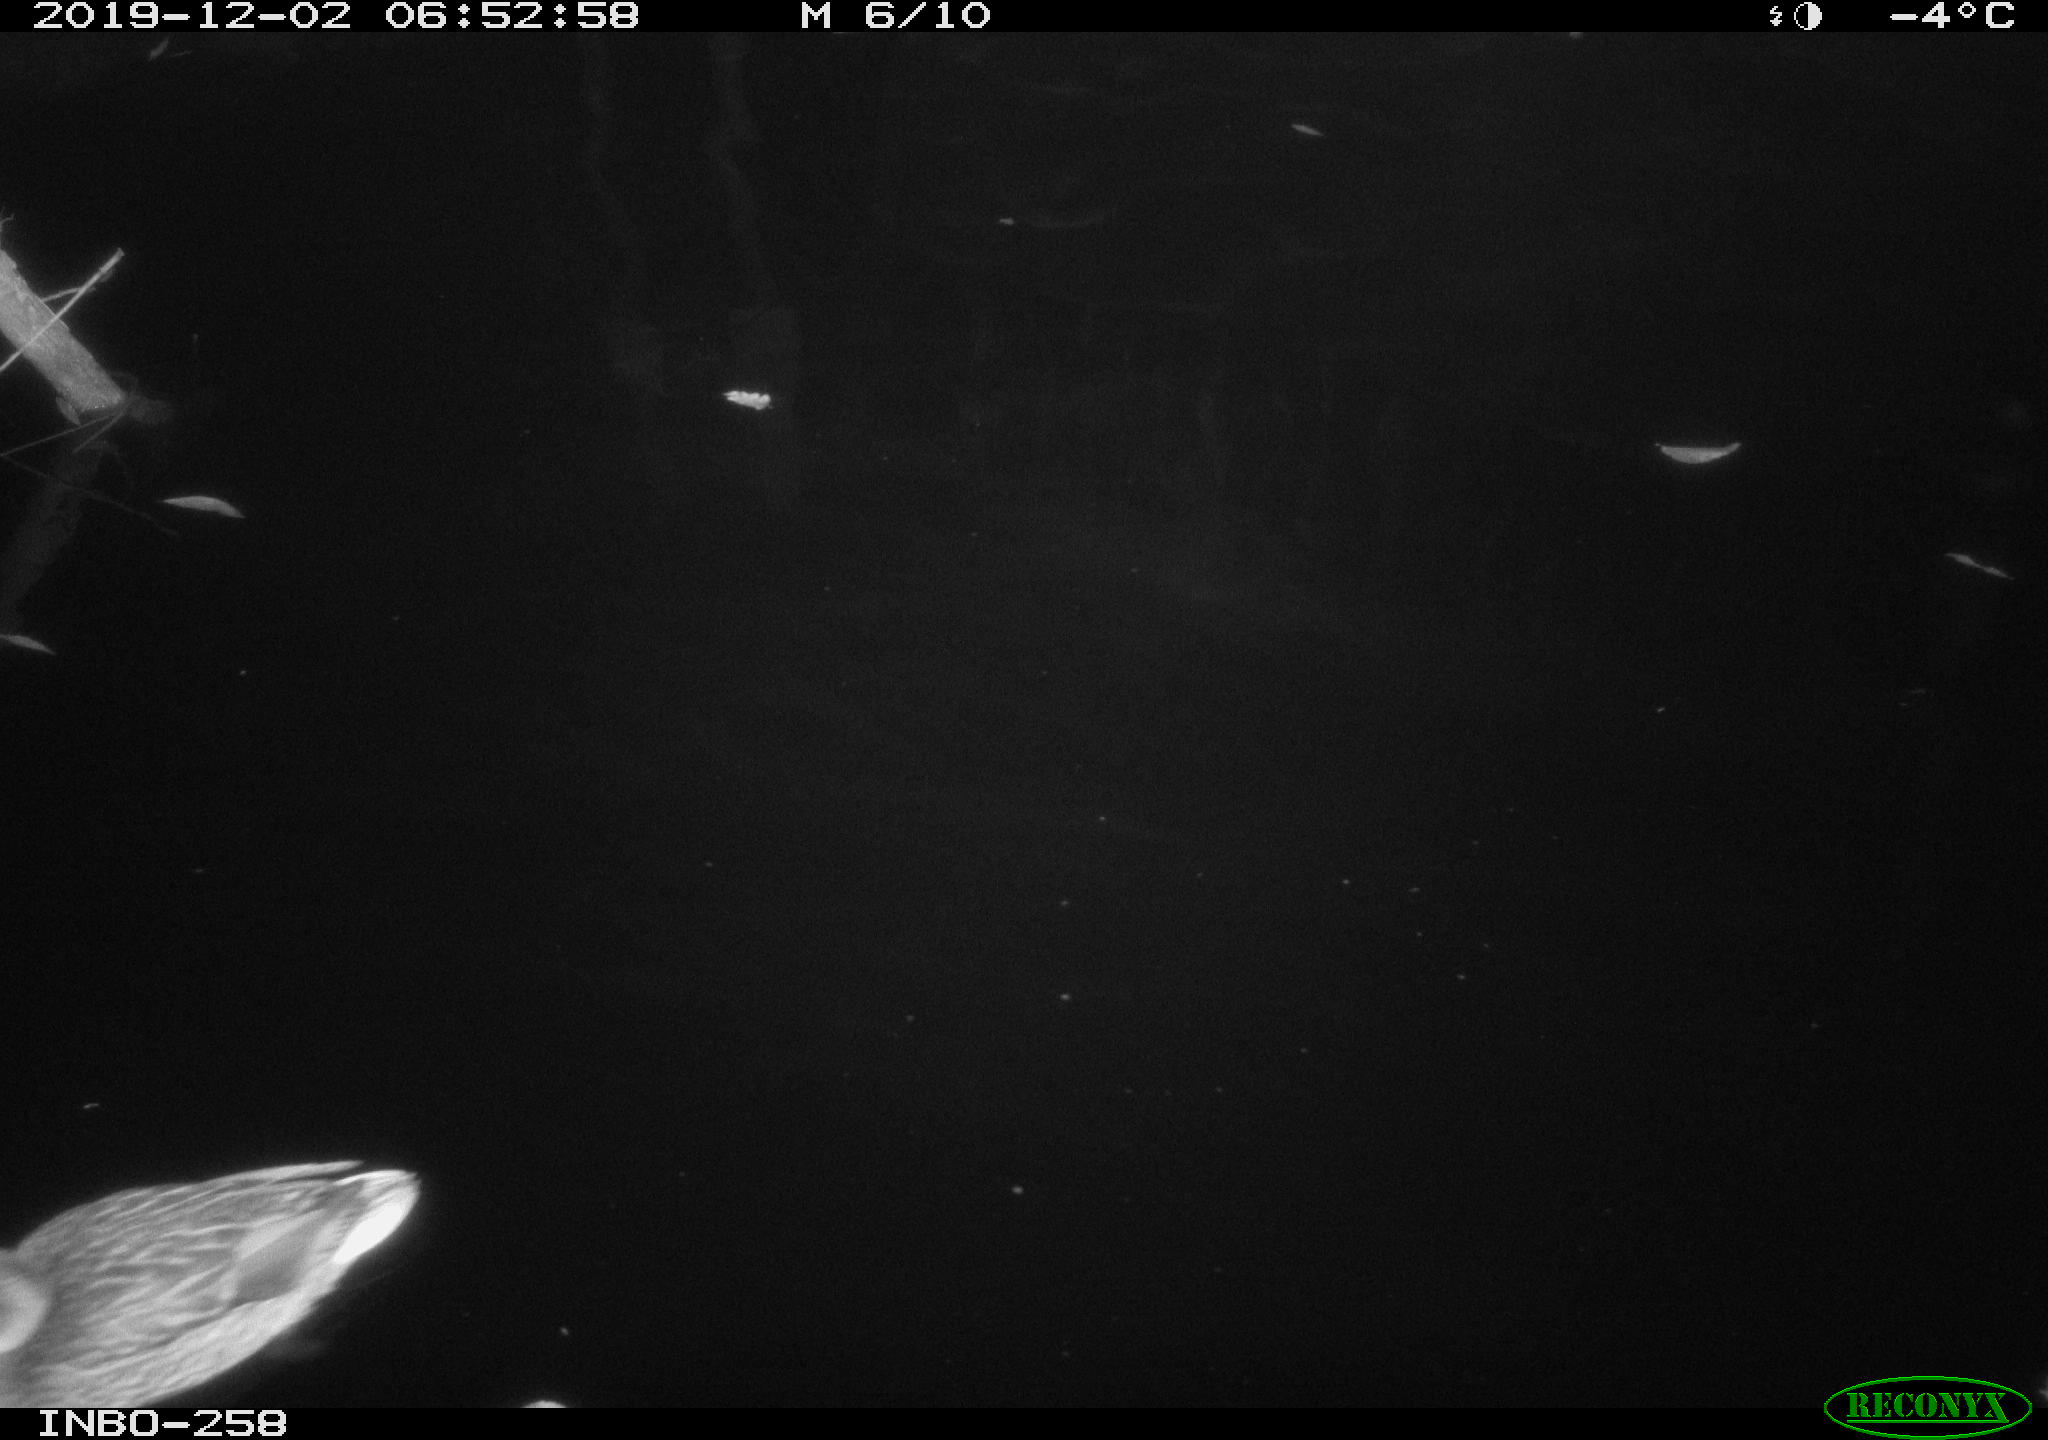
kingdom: Animalia
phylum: Chordata
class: Aves
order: Anseriformes
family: Anatidae
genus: Anas
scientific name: Anas platyrhynchos
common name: Mallard
